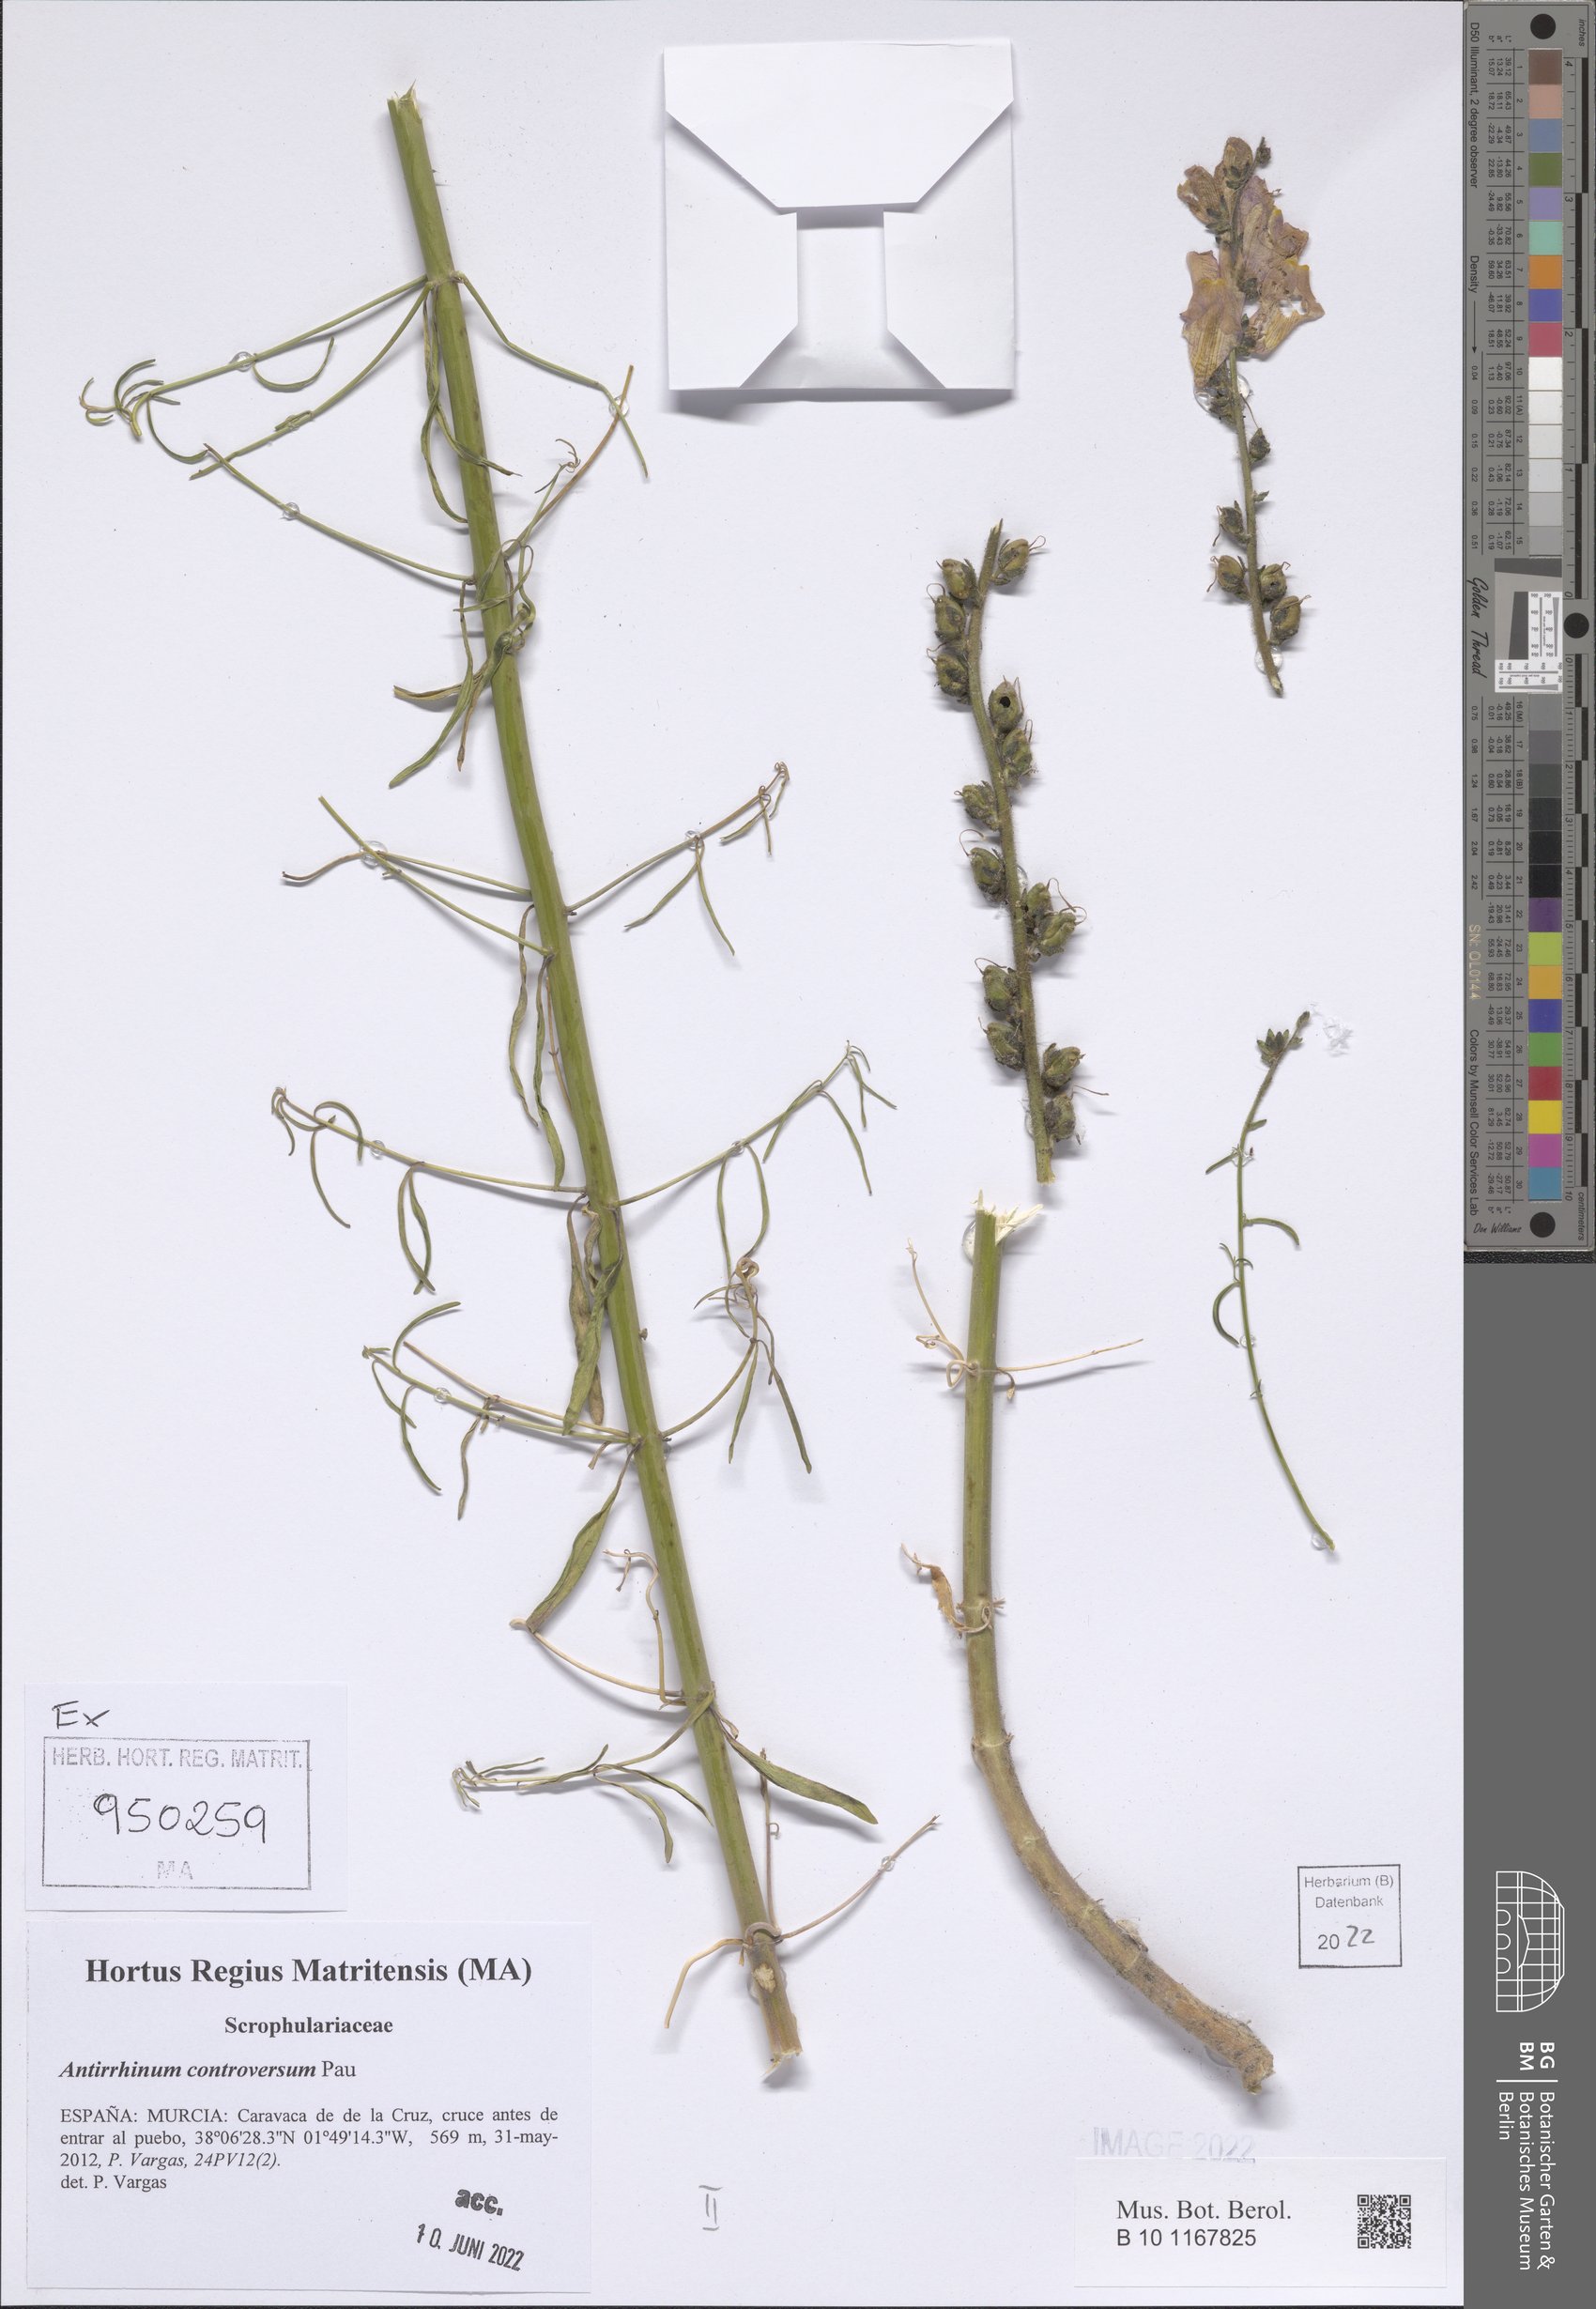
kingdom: Plantae
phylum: Tracheophyta
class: Magnoliopsida
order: Lamiales
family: Plantaginaceae
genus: Antirrhinum
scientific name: Antirrhinum controversum
